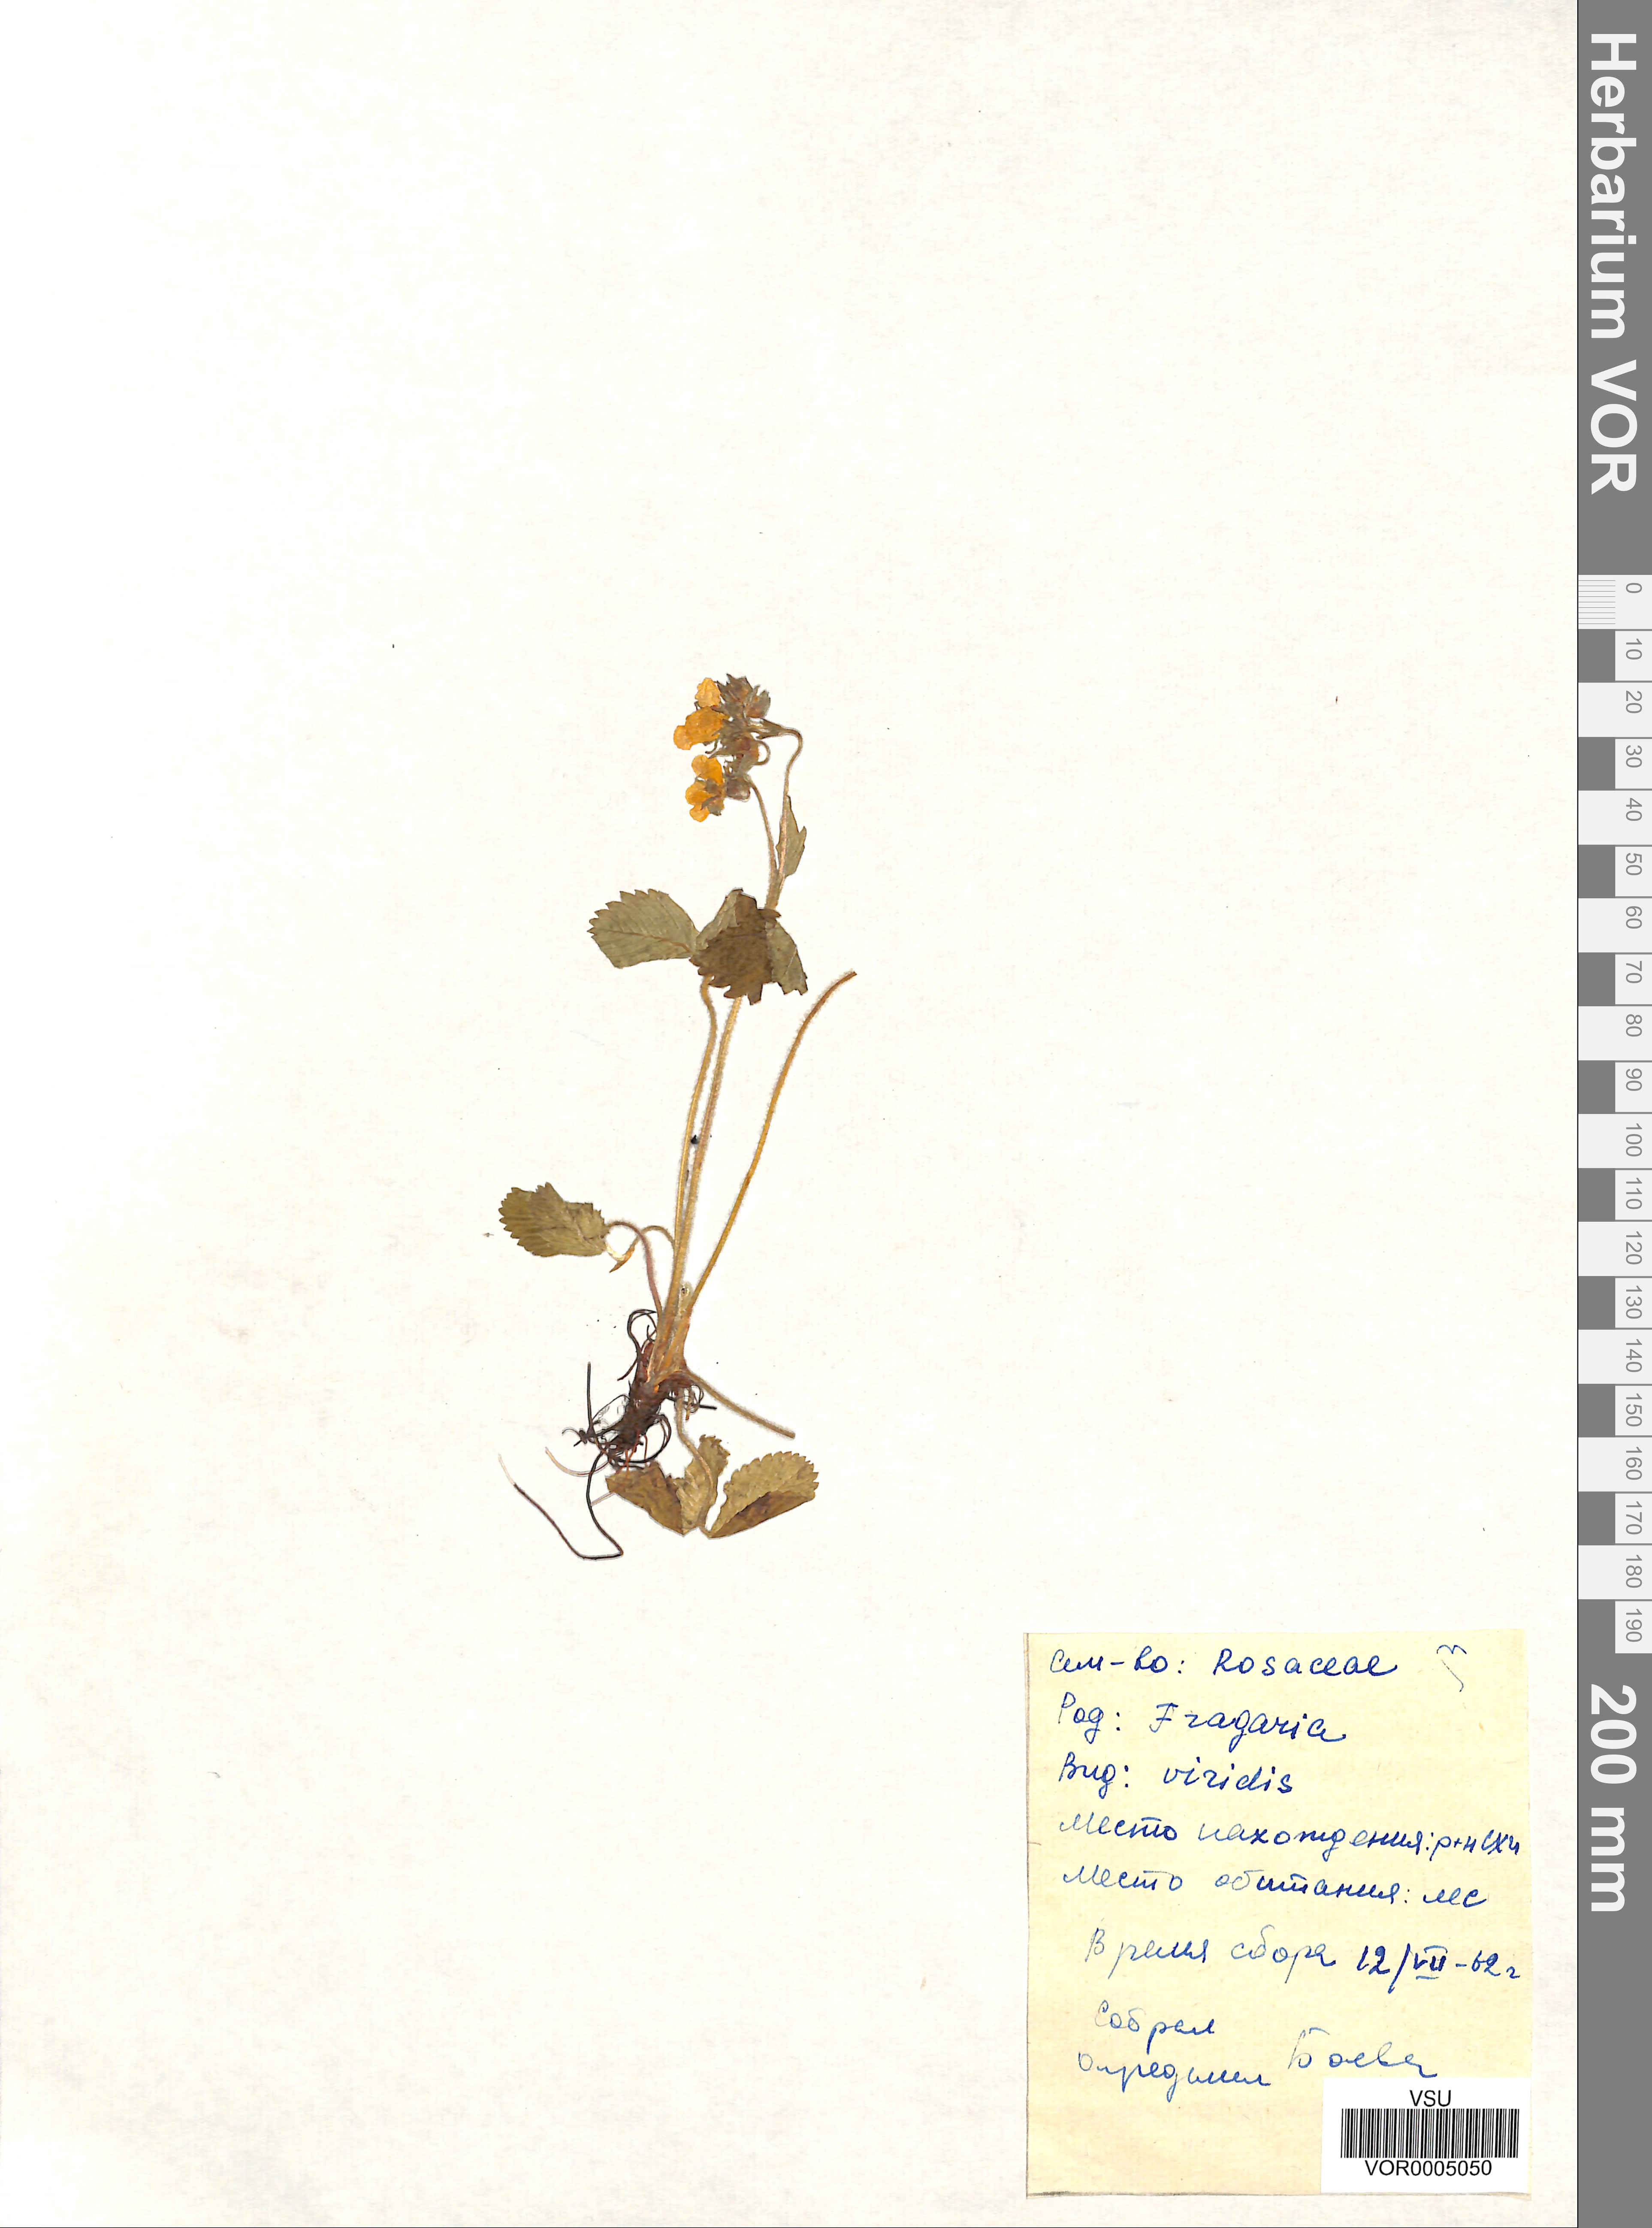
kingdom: Plantae
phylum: Tracheophyta
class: Magnoliopsida
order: Rosales
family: Rosaceae
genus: Fragaria
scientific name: Fragaria viridis
